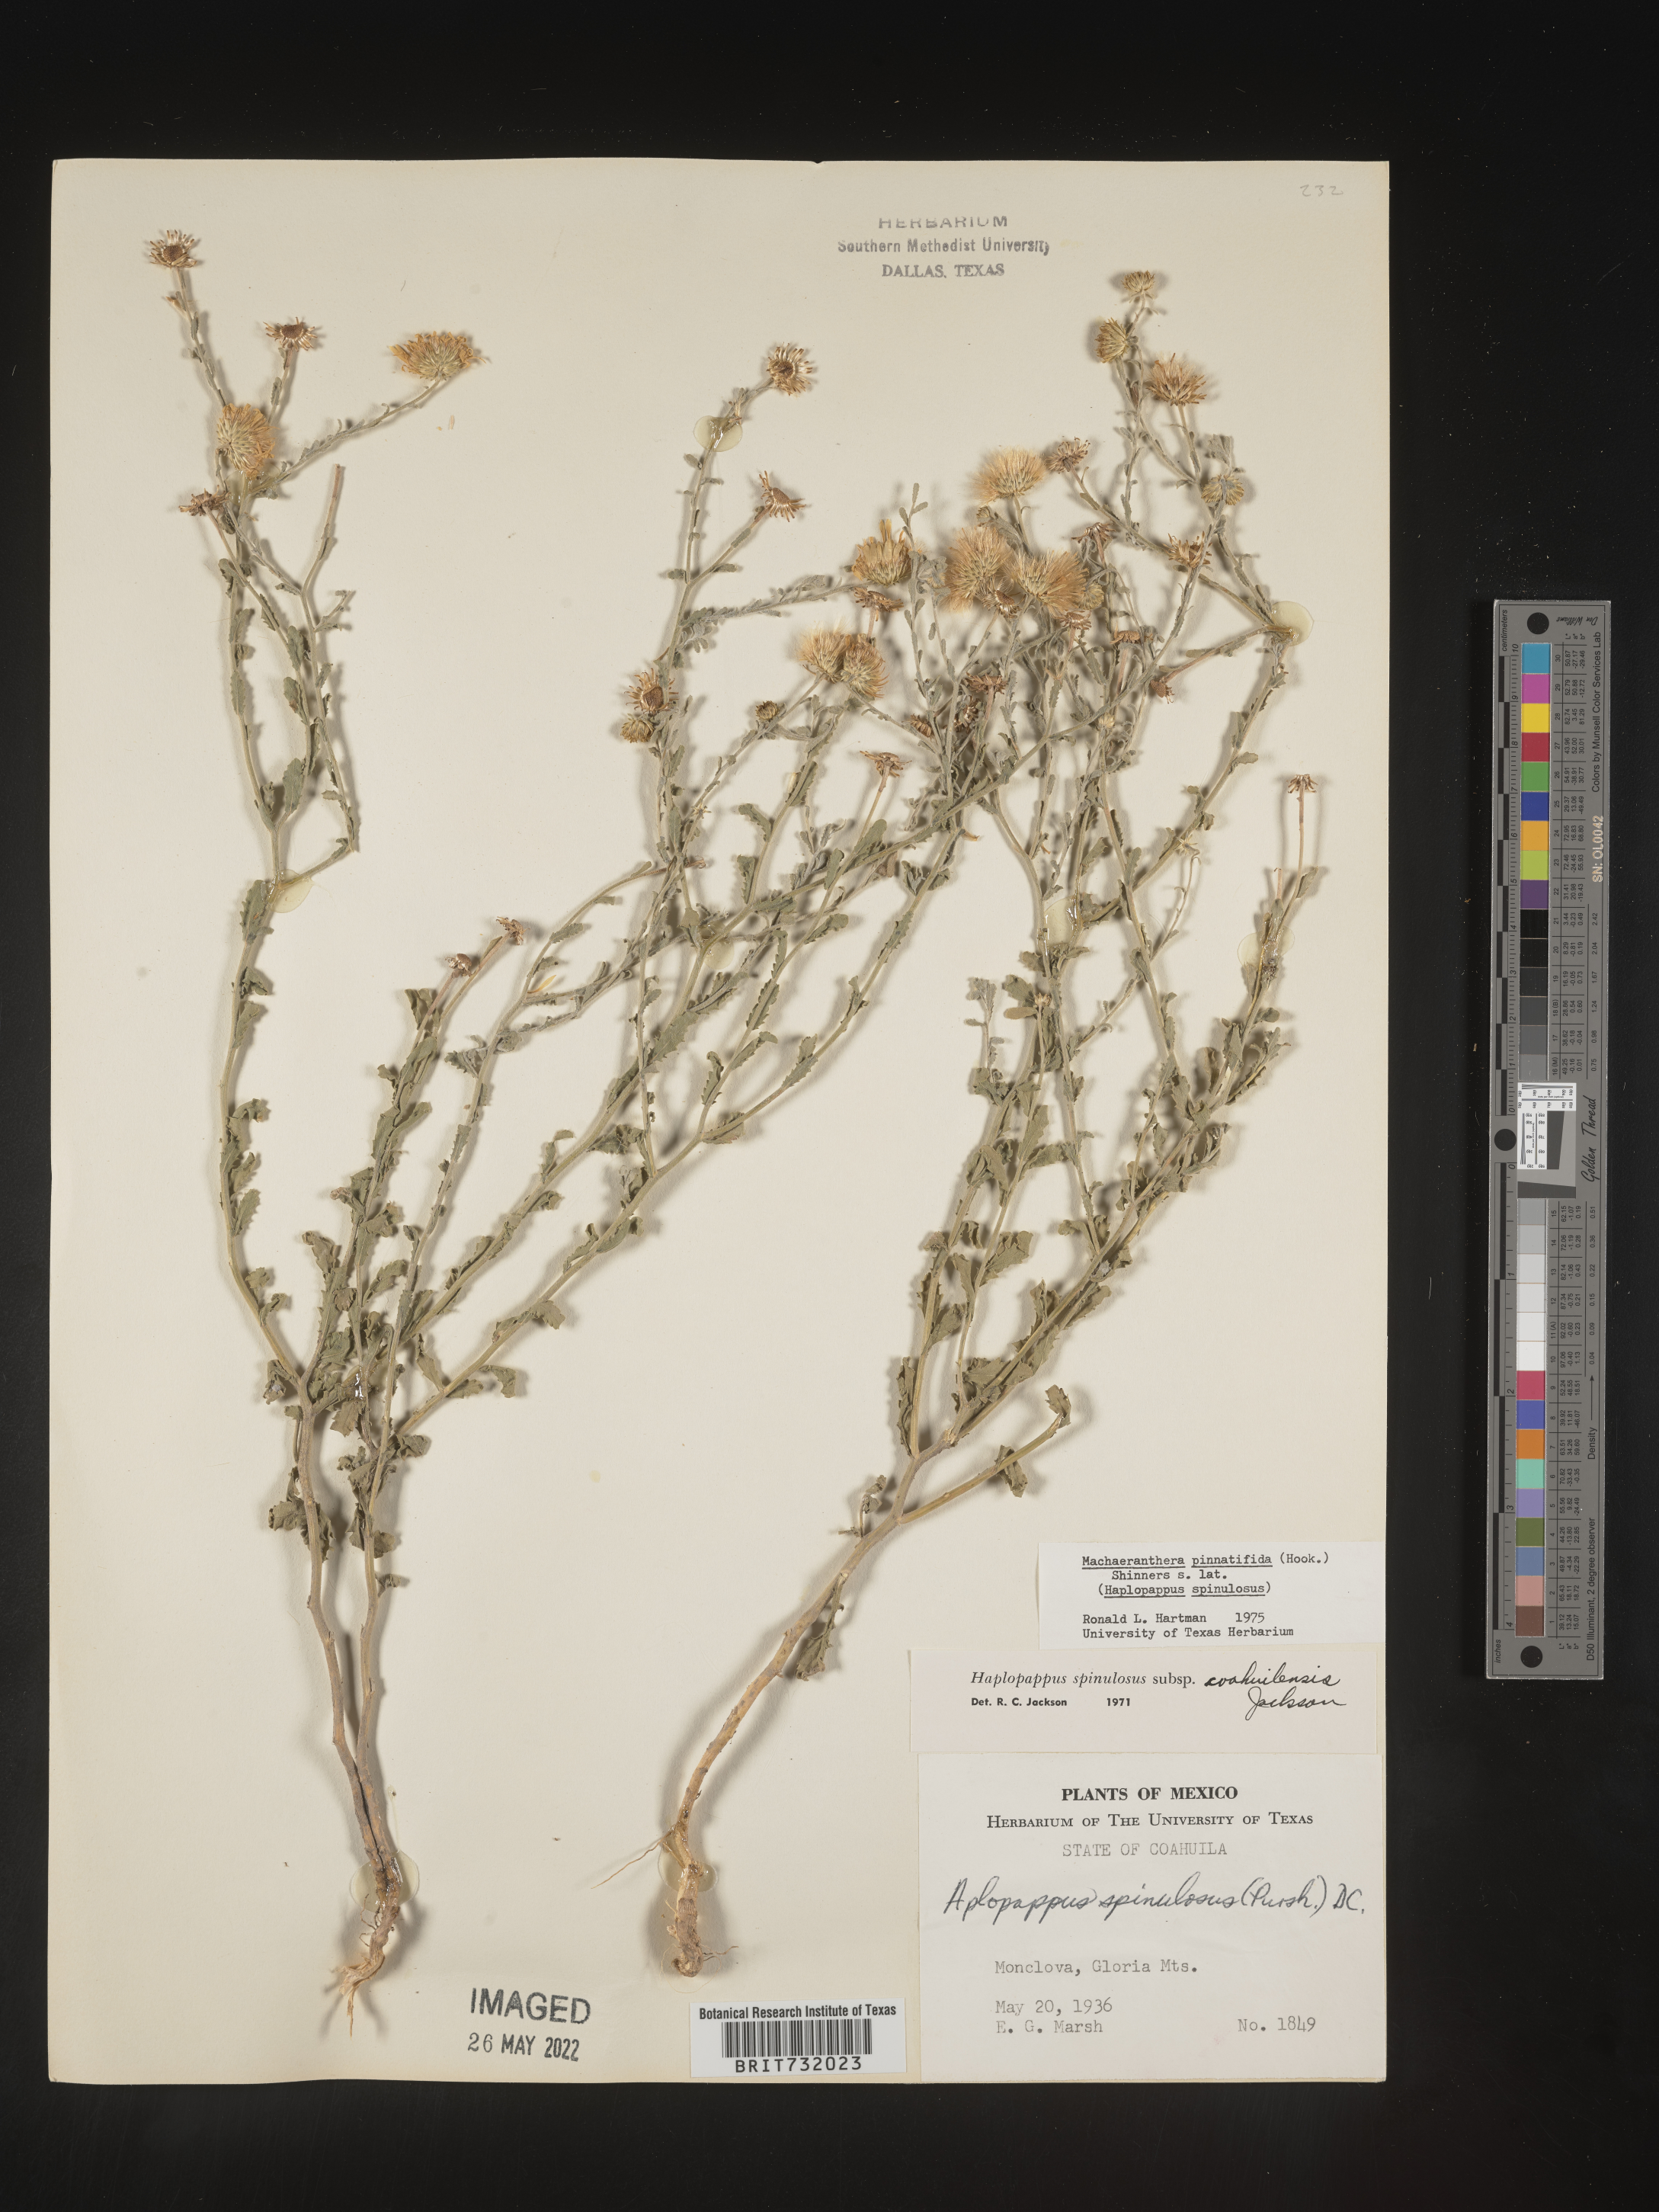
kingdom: Plantae
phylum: Tracheophyta
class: Magnoliopsida
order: Asterales
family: Asteraceae
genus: Xanthisma
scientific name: Xanthisma spinulosum
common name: Spiny goldenweed
